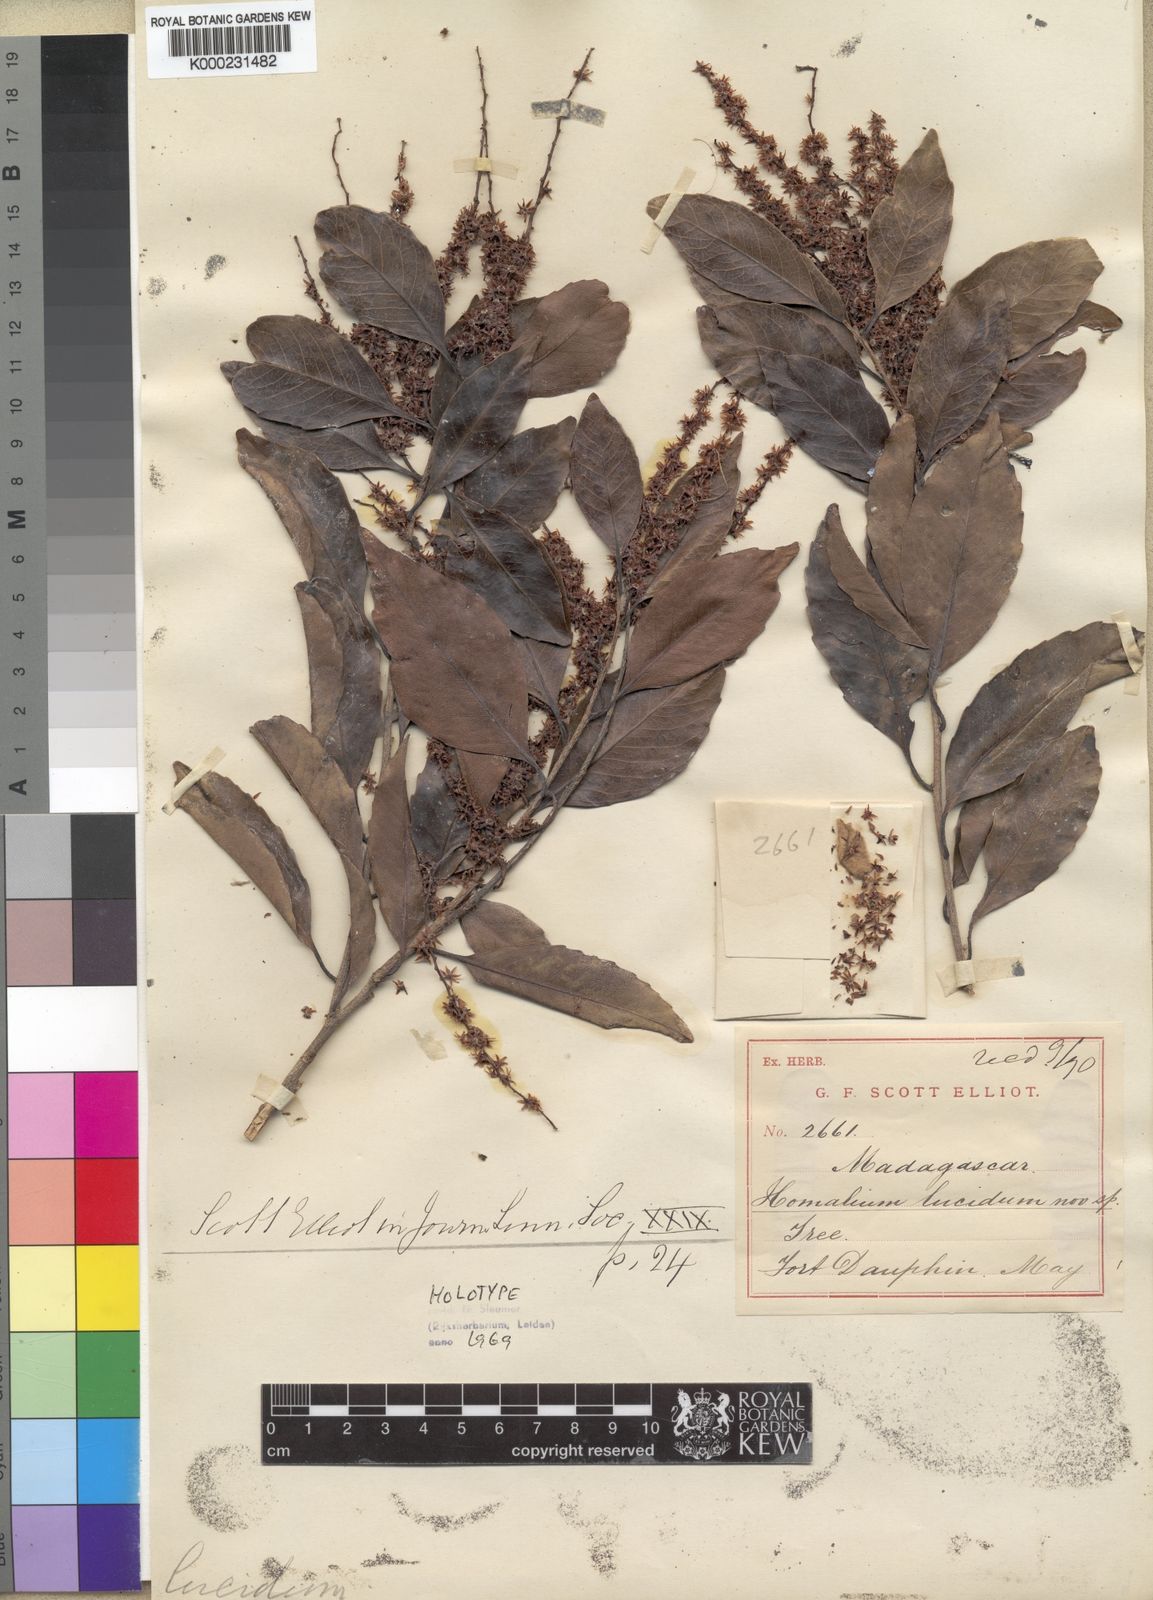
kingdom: Plantae
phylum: Tracheophyta
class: Magnoliopsida
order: Malpighiales
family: Salicaceae
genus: Homalium
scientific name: Homalium lucidum
